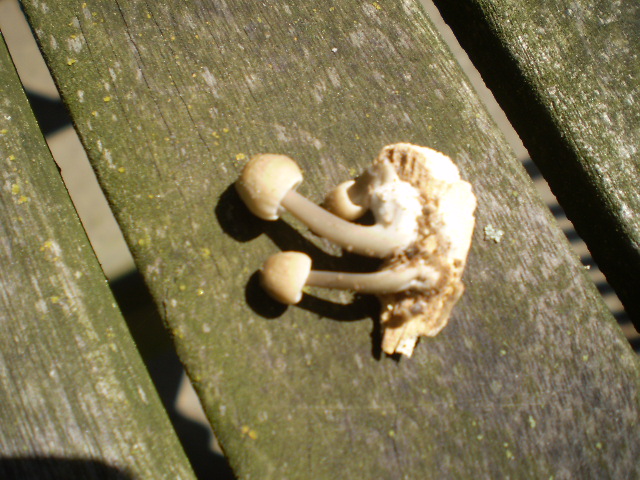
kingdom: Fungi
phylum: Basidiomycota
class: Agaricomycetes
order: Agaricales
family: Mycenaceae
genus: Mycena
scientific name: Mycena galericulata
